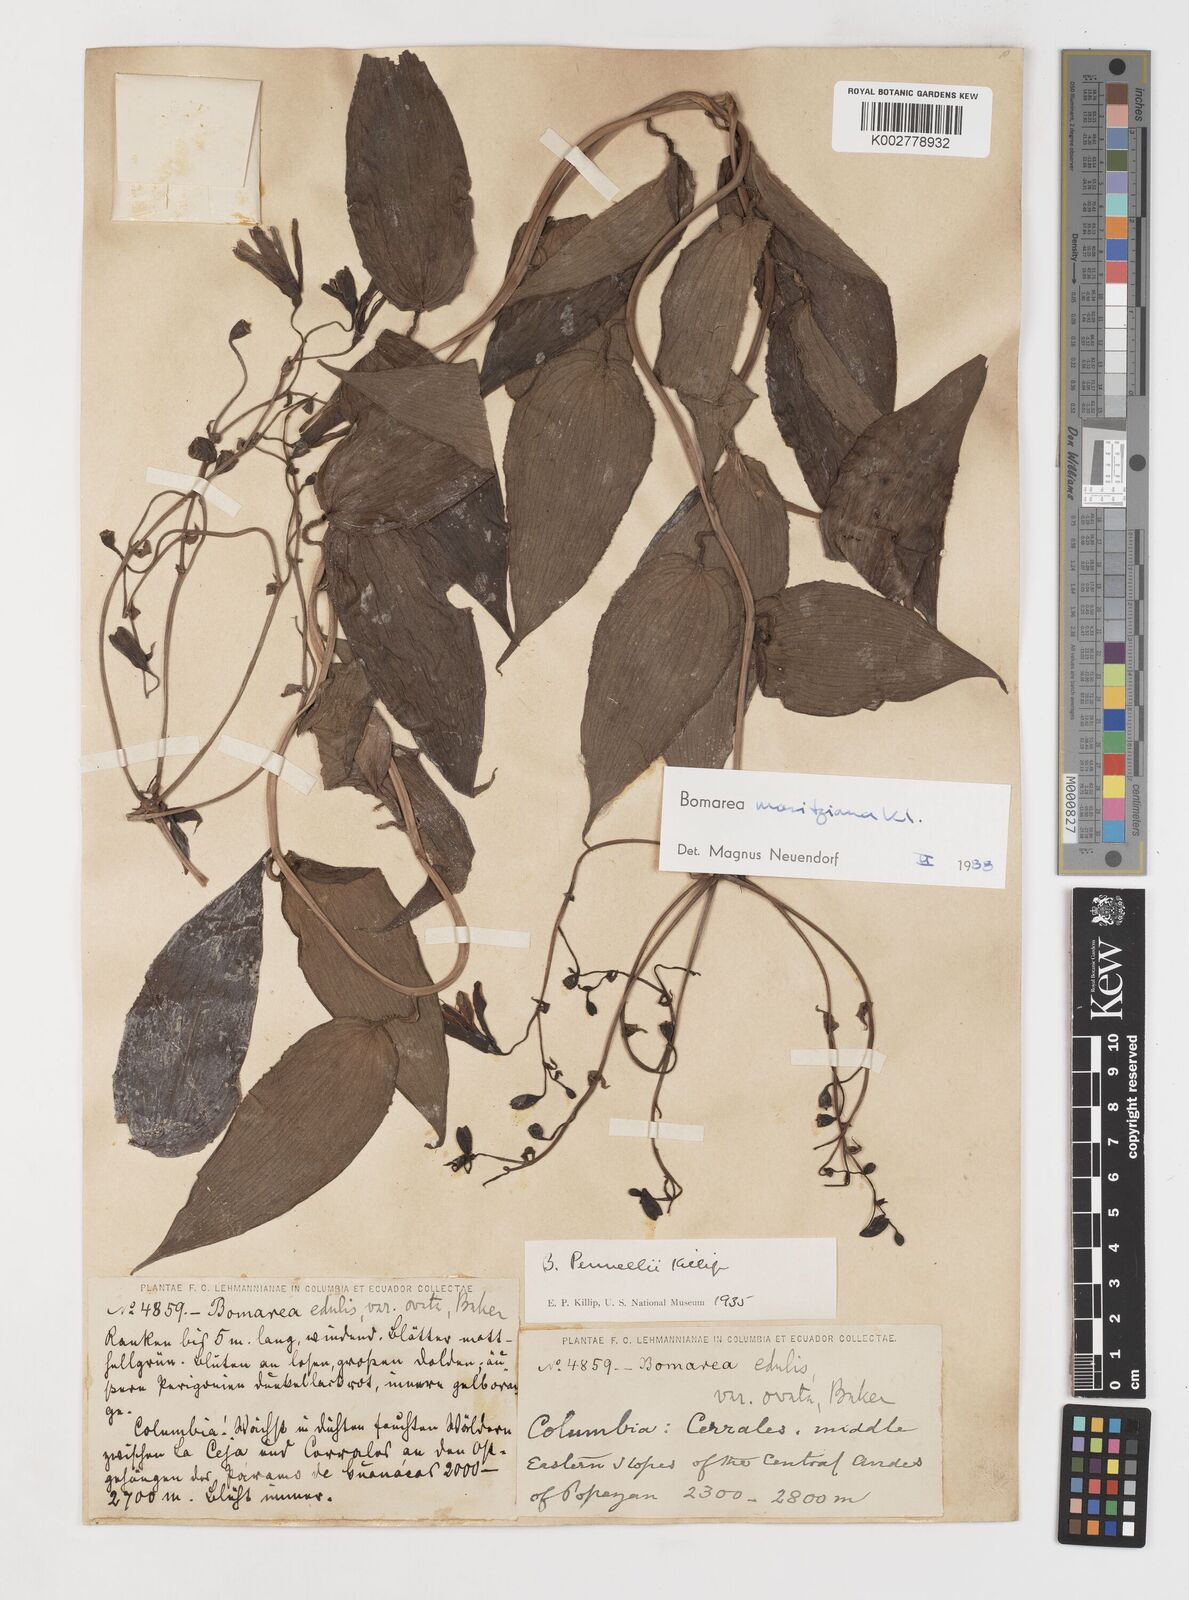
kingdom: Plantae
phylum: Tracheophyta
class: Liliopsida
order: Liliales
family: Alstroemeriaceae
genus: Bomarea
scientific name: Bomarea moritziana
